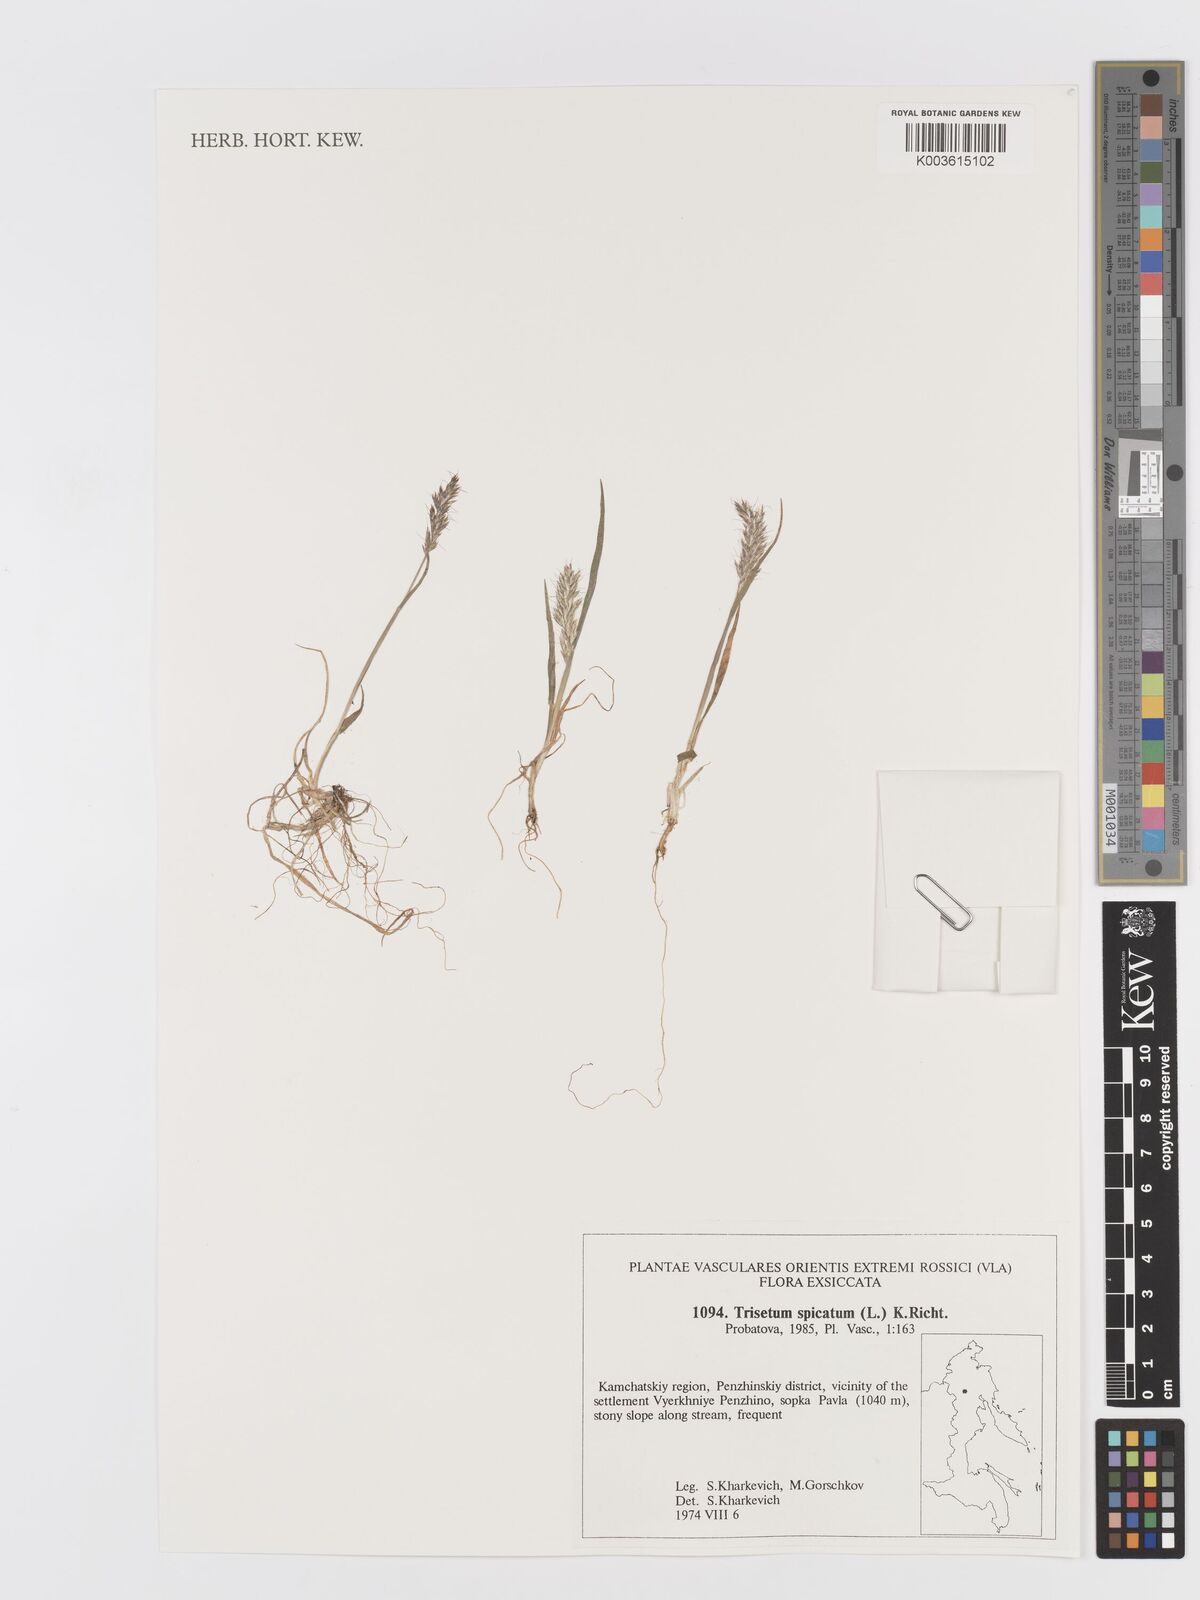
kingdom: Plantae
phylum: Tracheophyta
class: Liliopsida
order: Poales
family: Poaceae
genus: Koeleria
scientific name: Koeleria spicata
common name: Mountain trisetum
